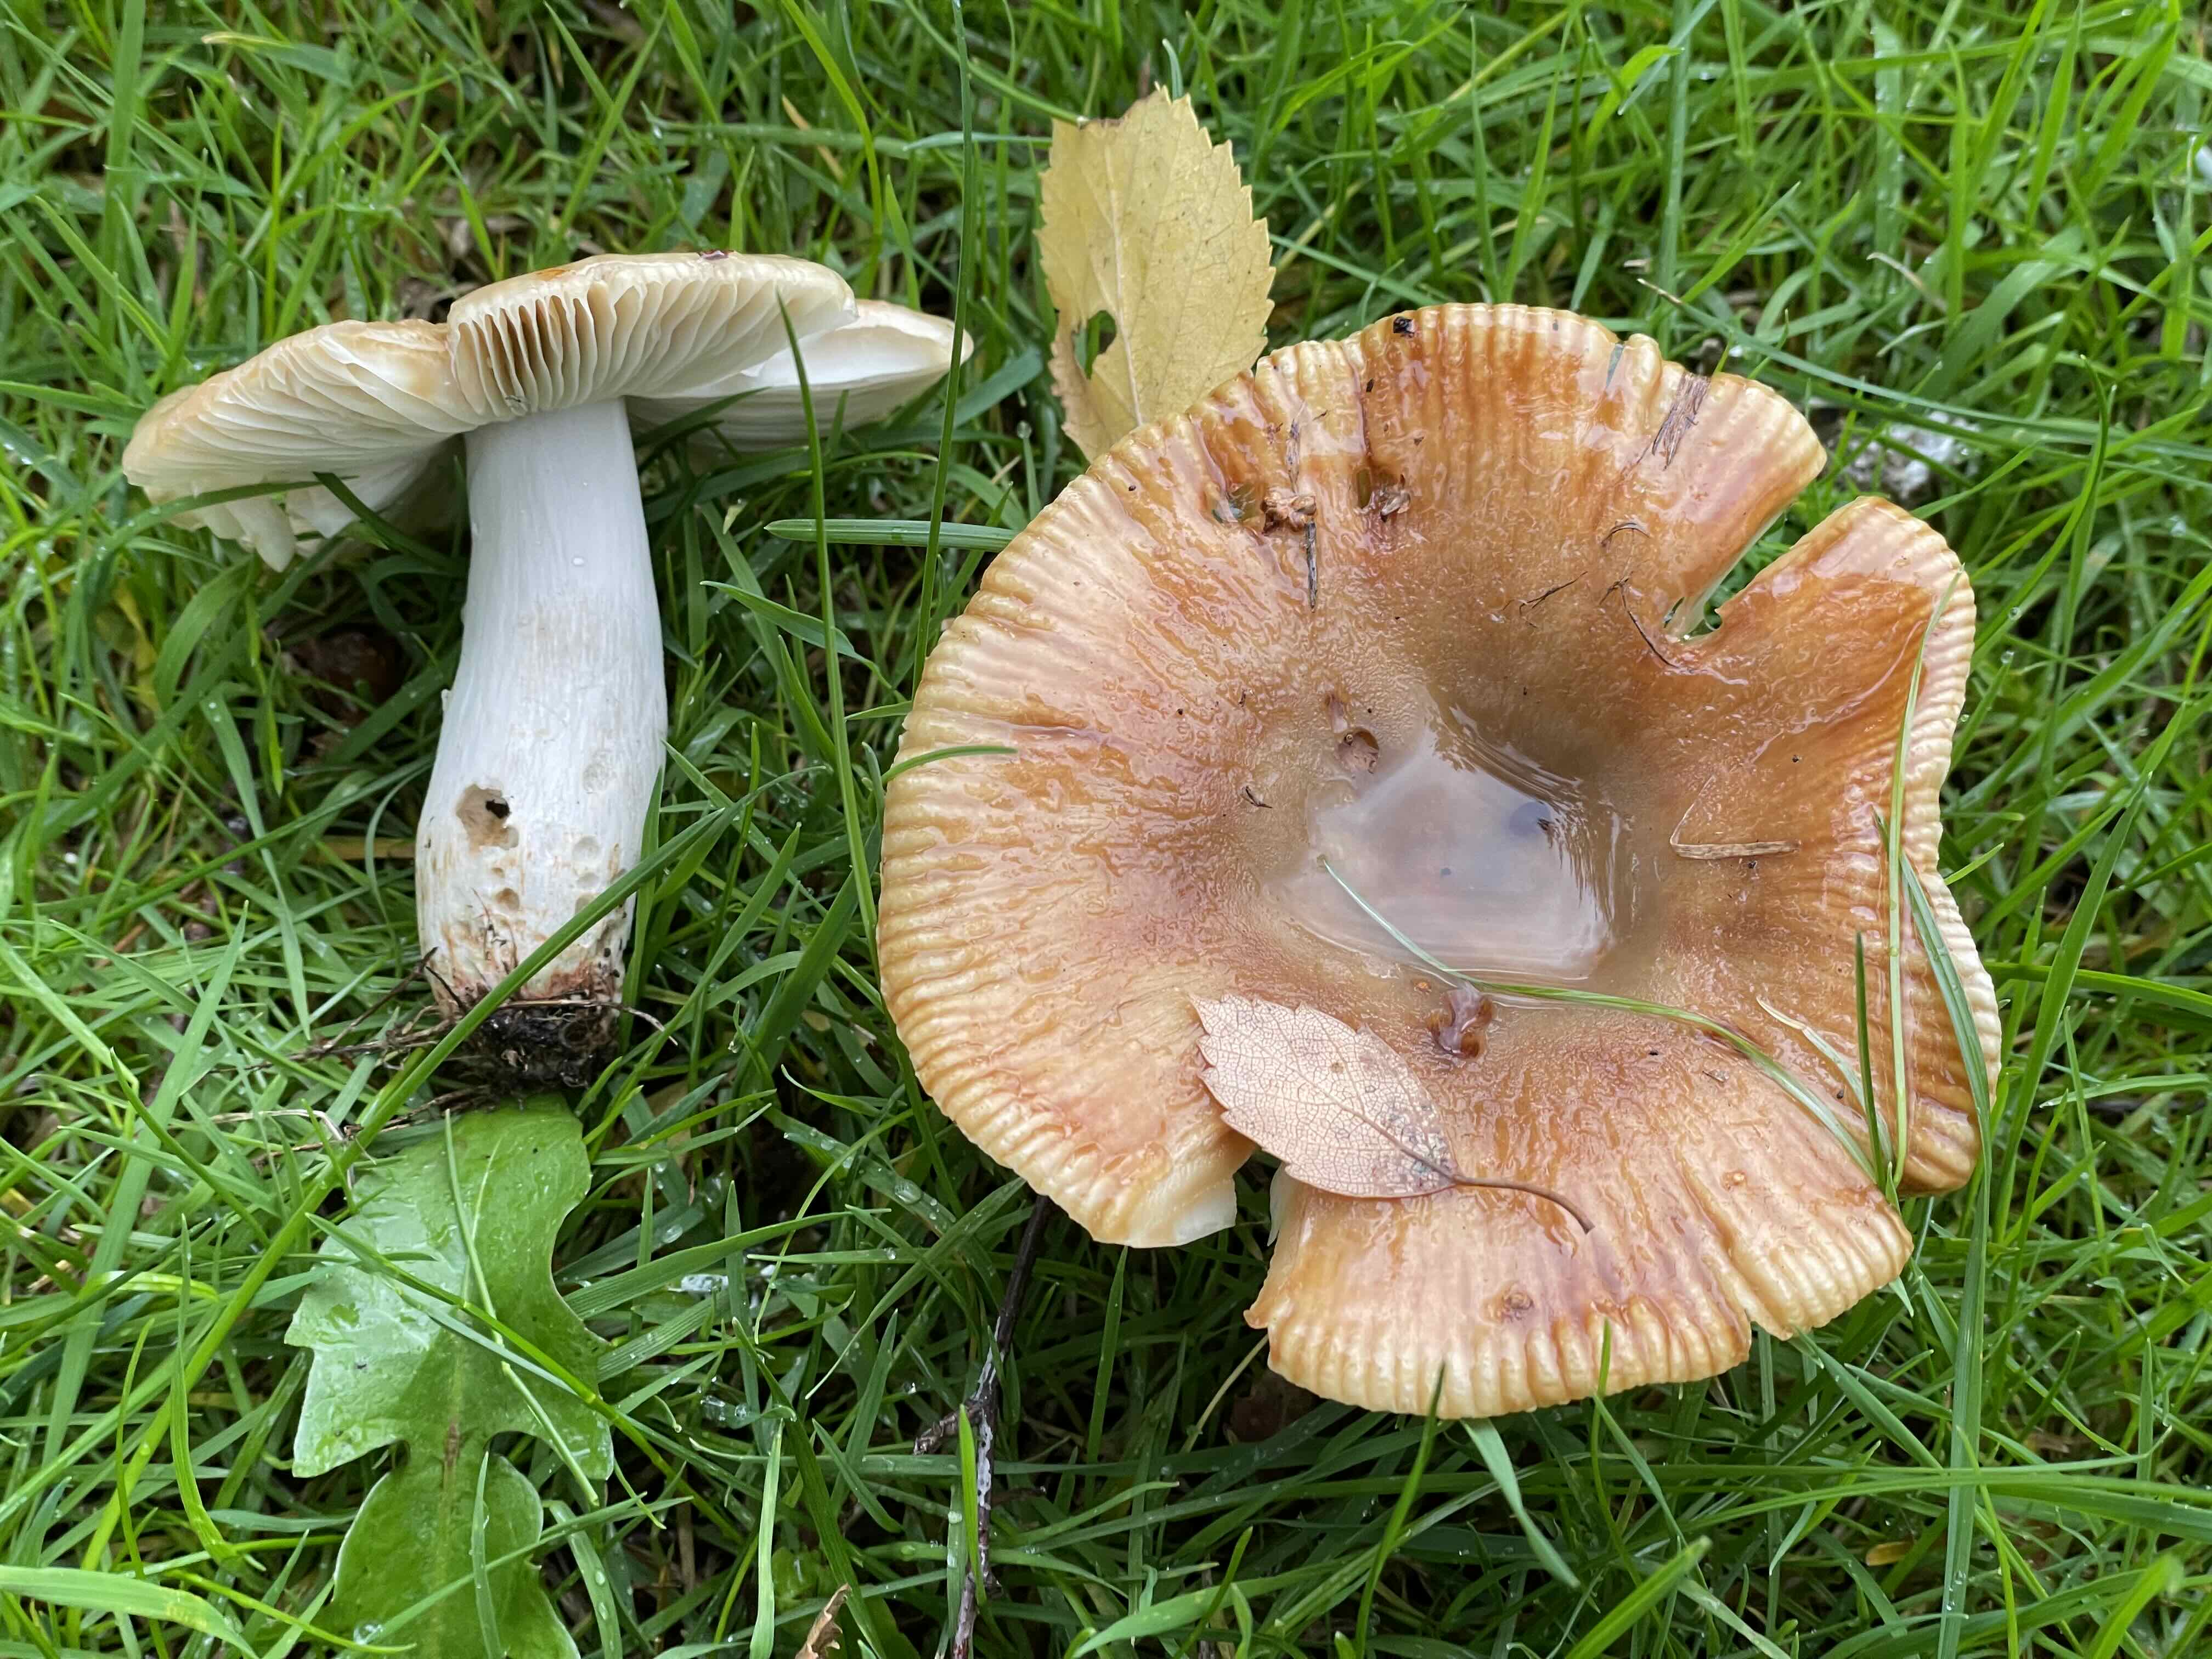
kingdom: Fungi
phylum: Basidiomycota
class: Agaricomycetes
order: Russulales
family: Russulaceae
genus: Russula
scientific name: Russula recondita
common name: mild kam-skørhat
